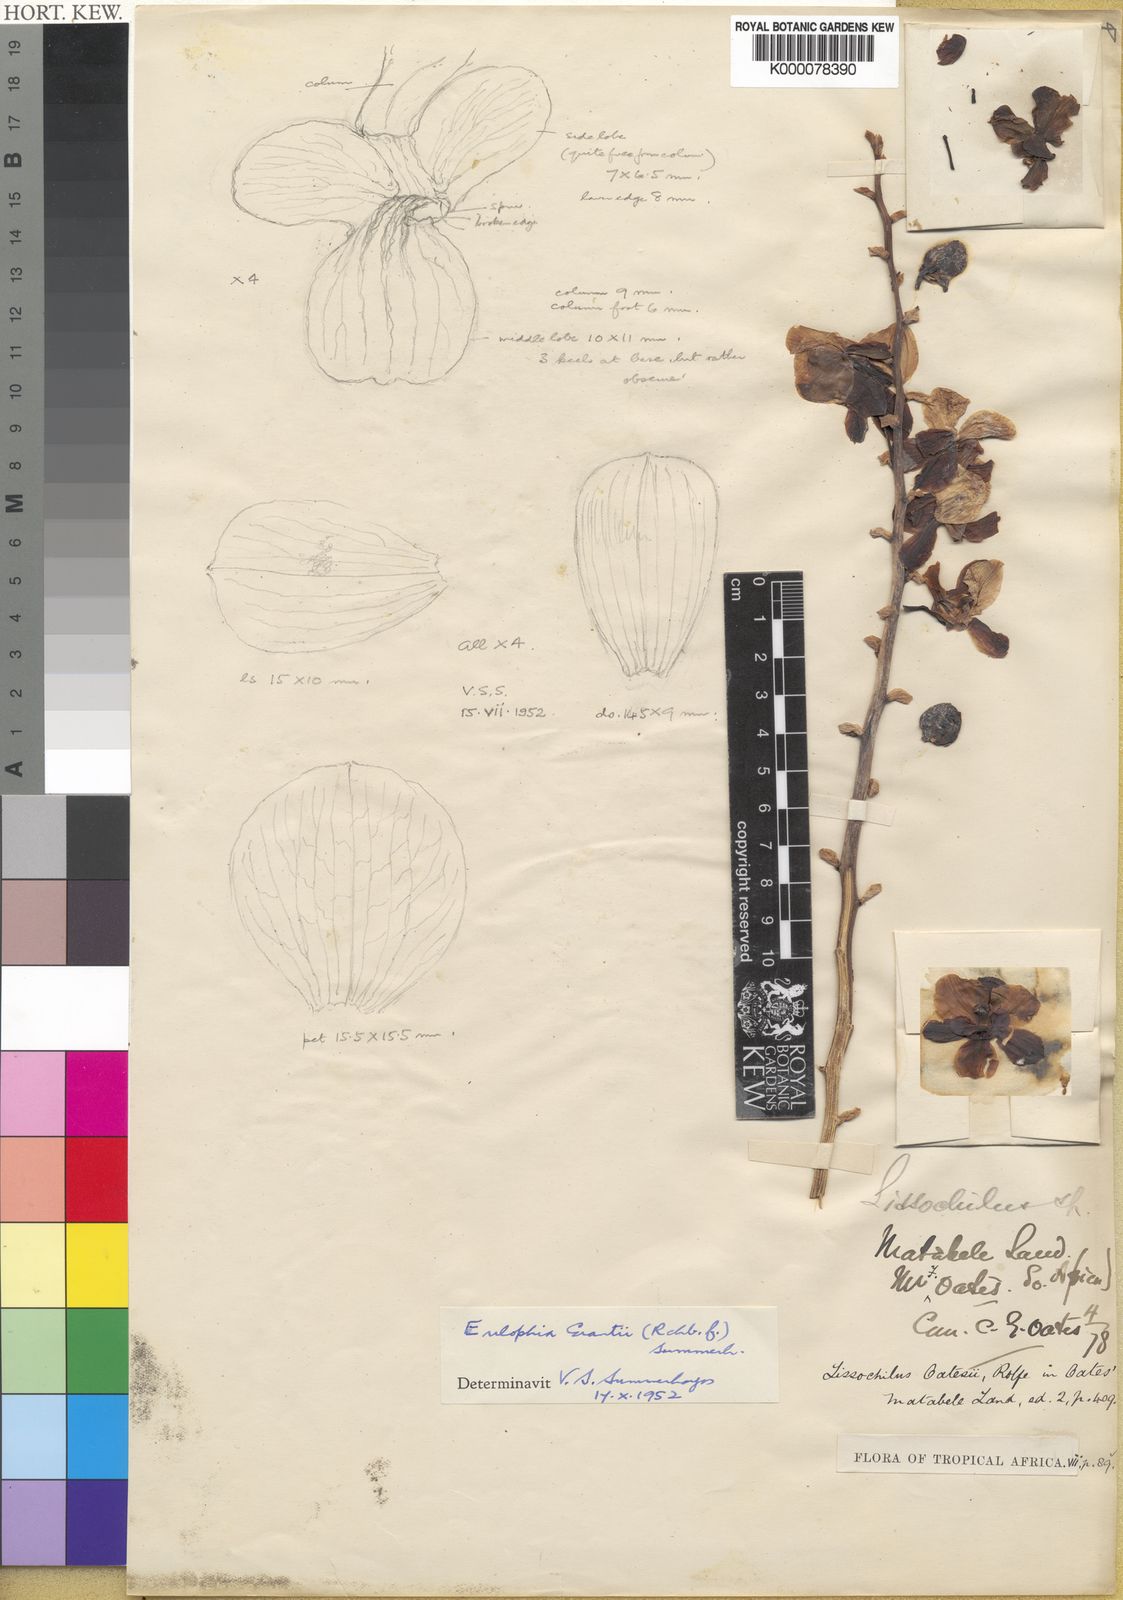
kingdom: Plantae
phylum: Tracheophyta
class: Liliopsida
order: Asparagales
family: Orchidaceae
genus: Eulophia
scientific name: Eulophia streptopetala
